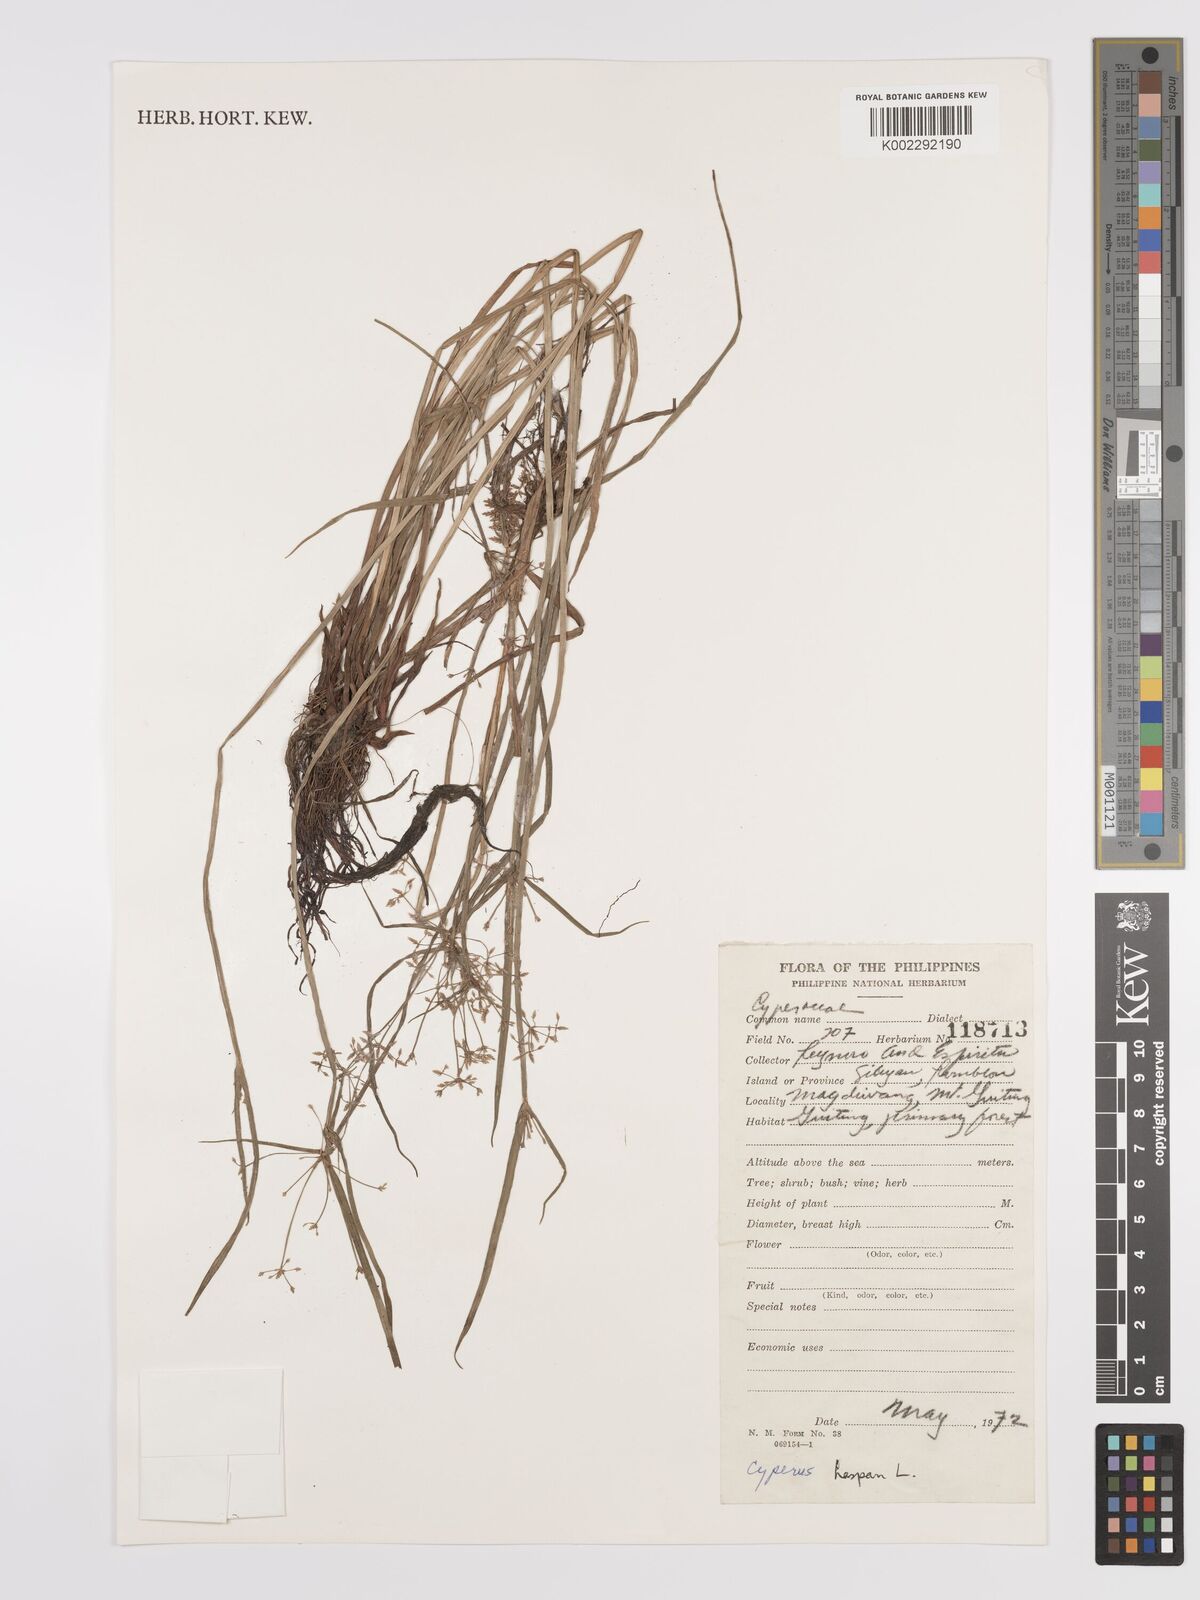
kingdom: Plantae
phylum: Tracheophyta
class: Liliopsida
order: Poales
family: Cyperaceae
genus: Cyperus
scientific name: Cyperus haspan
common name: Haspan flatsedge
